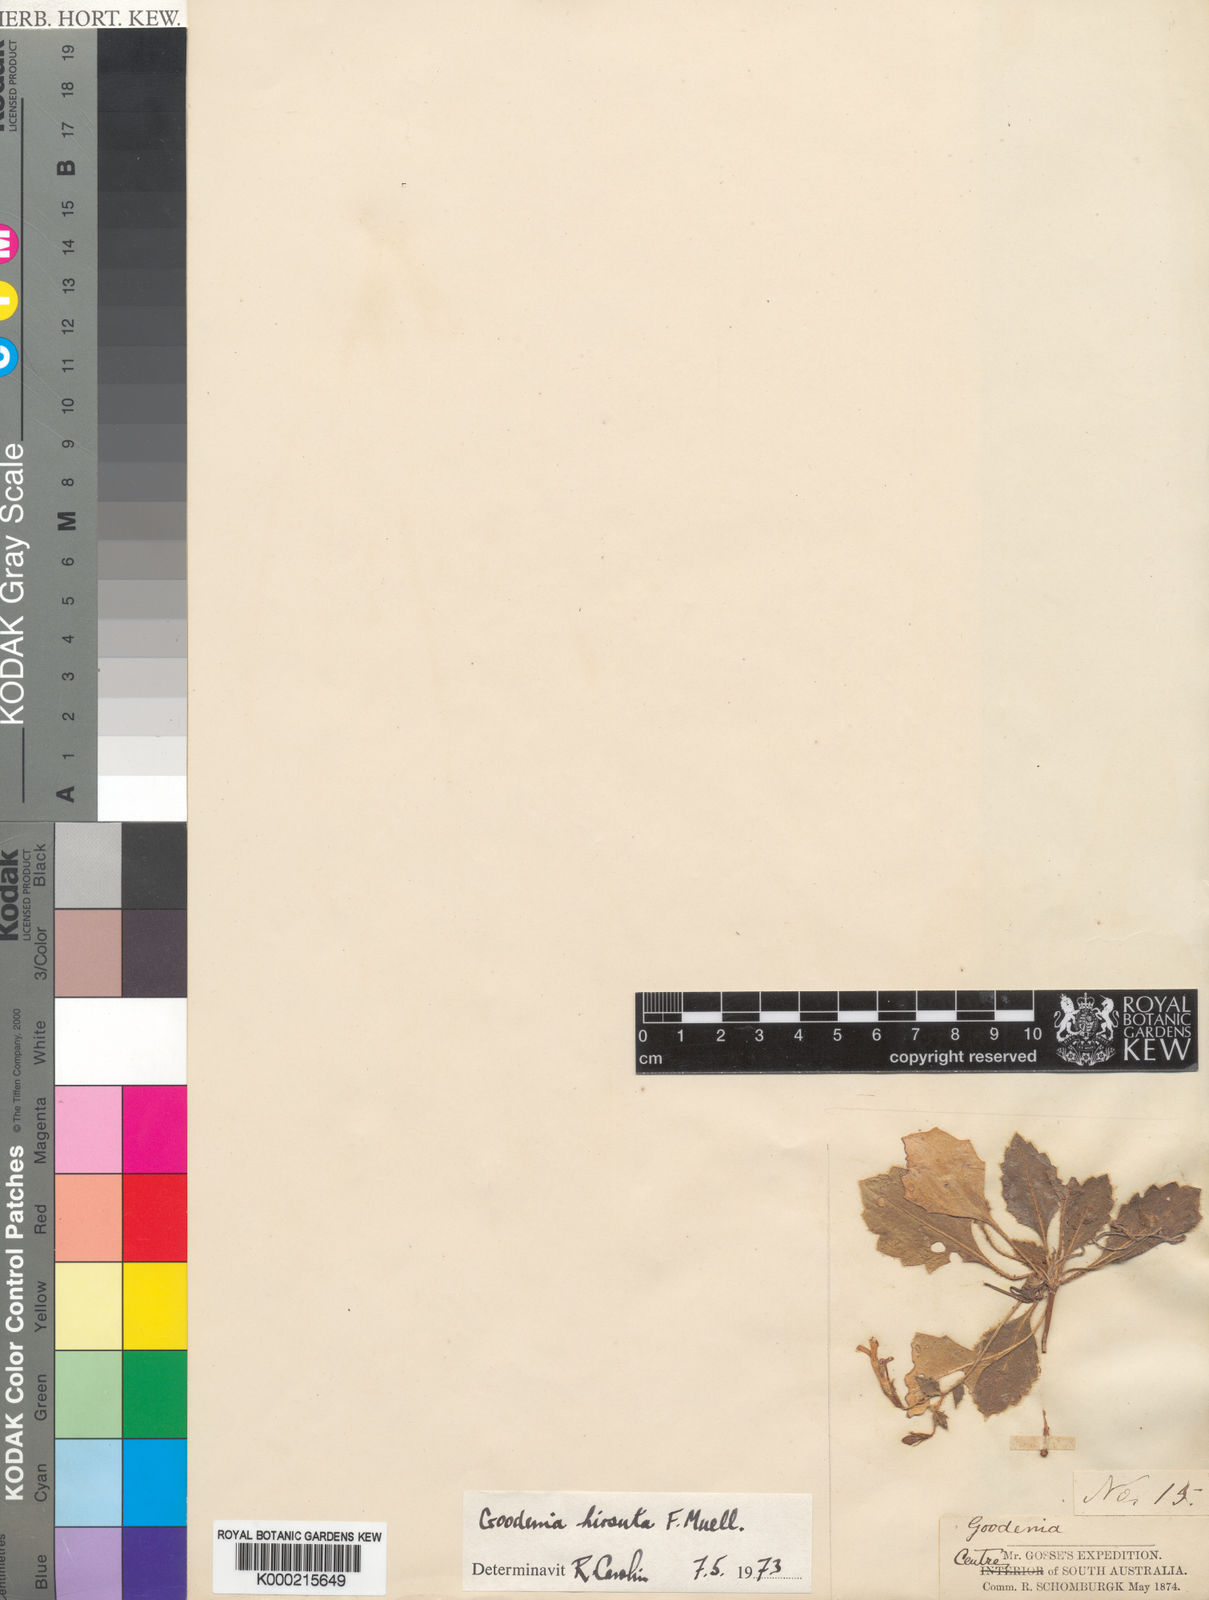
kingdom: Plantae
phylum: Tracheophyta
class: Magnoliopsida
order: Asterales
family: Goodeniaceae
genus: Goodenia
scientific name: Goodenia hirsuta
